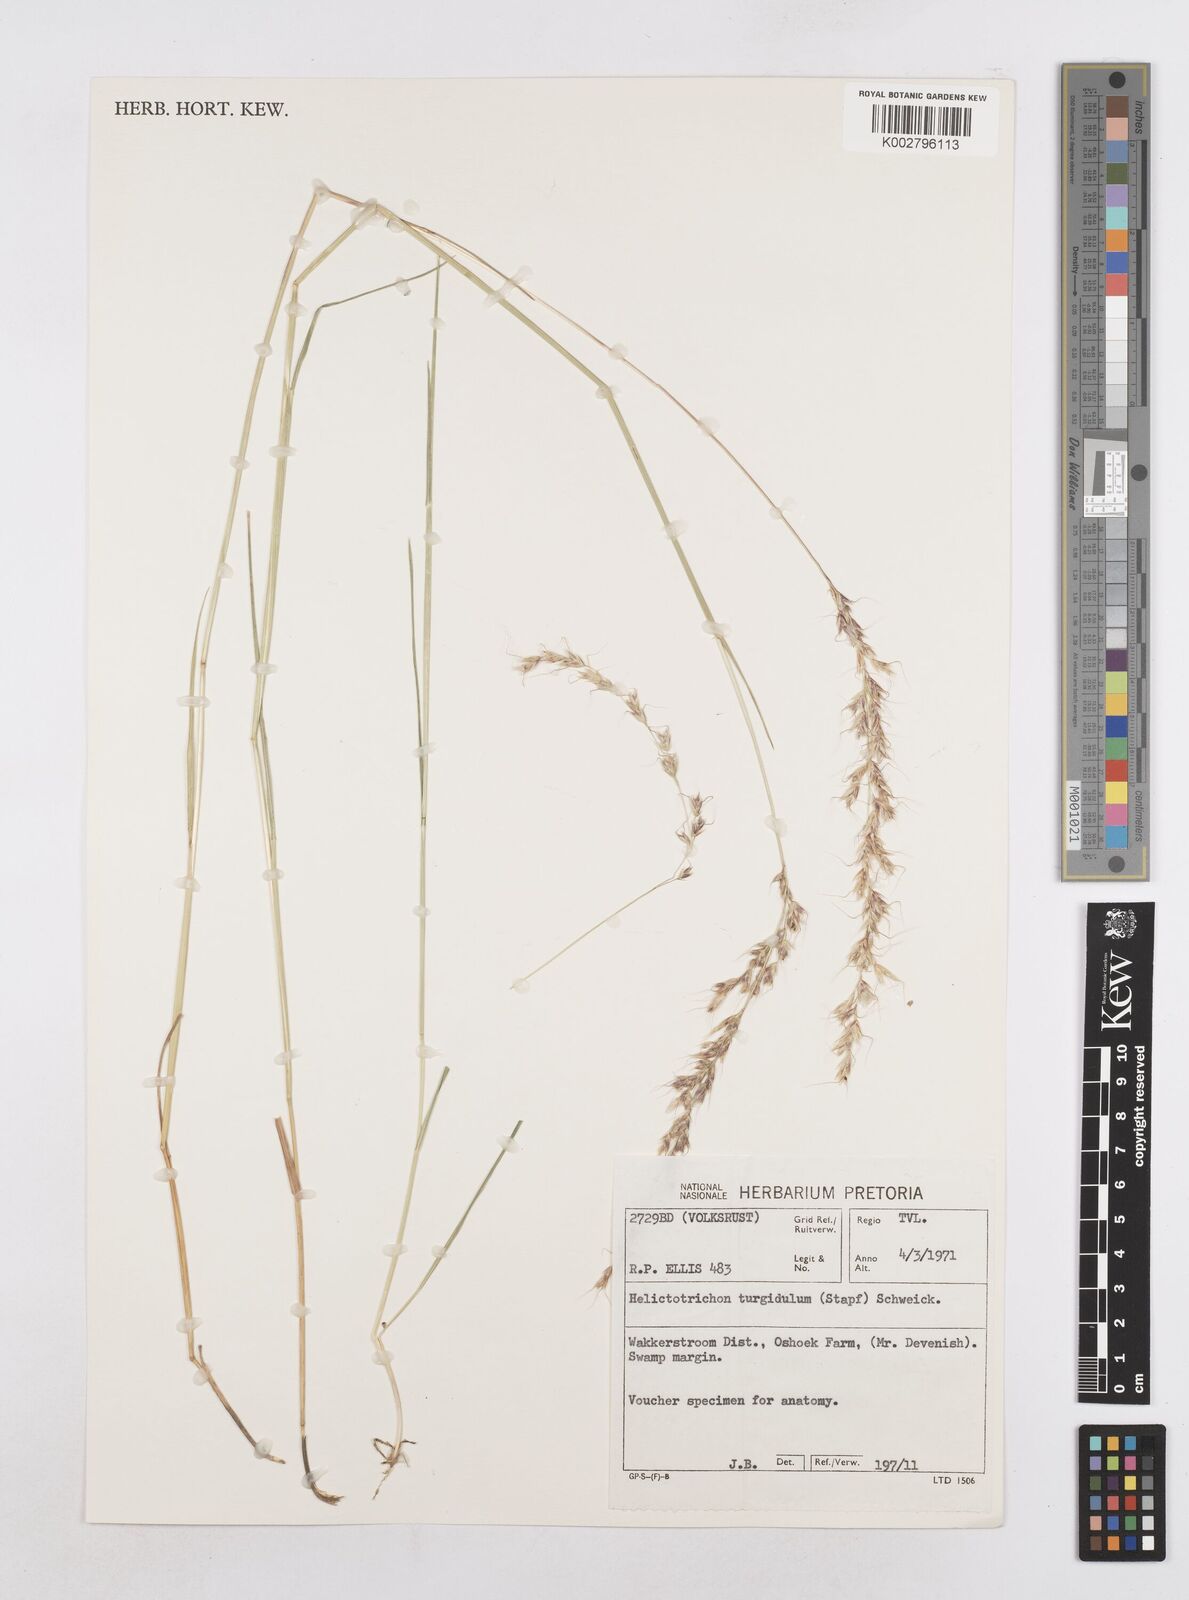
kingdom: Plantae
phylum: Tracheophyta
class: Liliopsida
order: Poales
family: Poaceae
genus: Trisetopsis
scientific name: Trisetopsis imberbis
